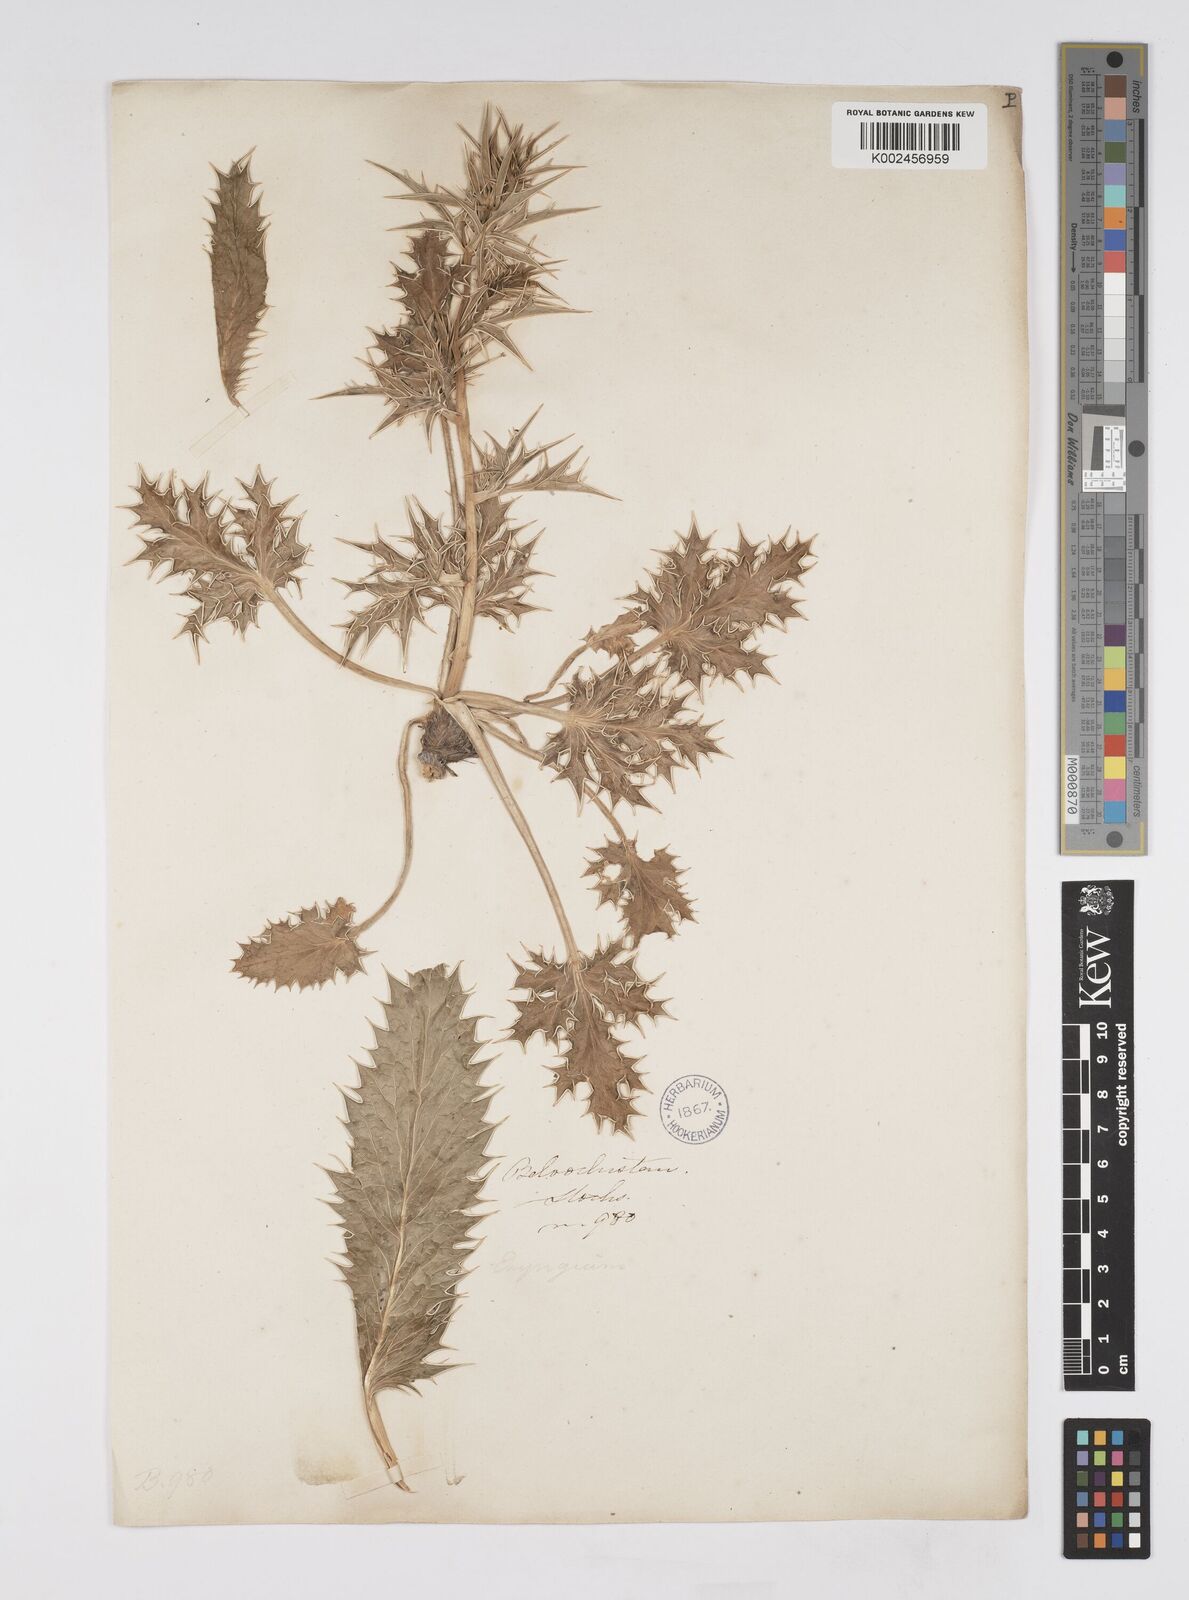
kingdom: Plantae
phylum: Tracheophyta
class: Magnoliopsida
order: Apiales
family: Apiaceae
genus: Eryngium
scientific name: Eryngium
